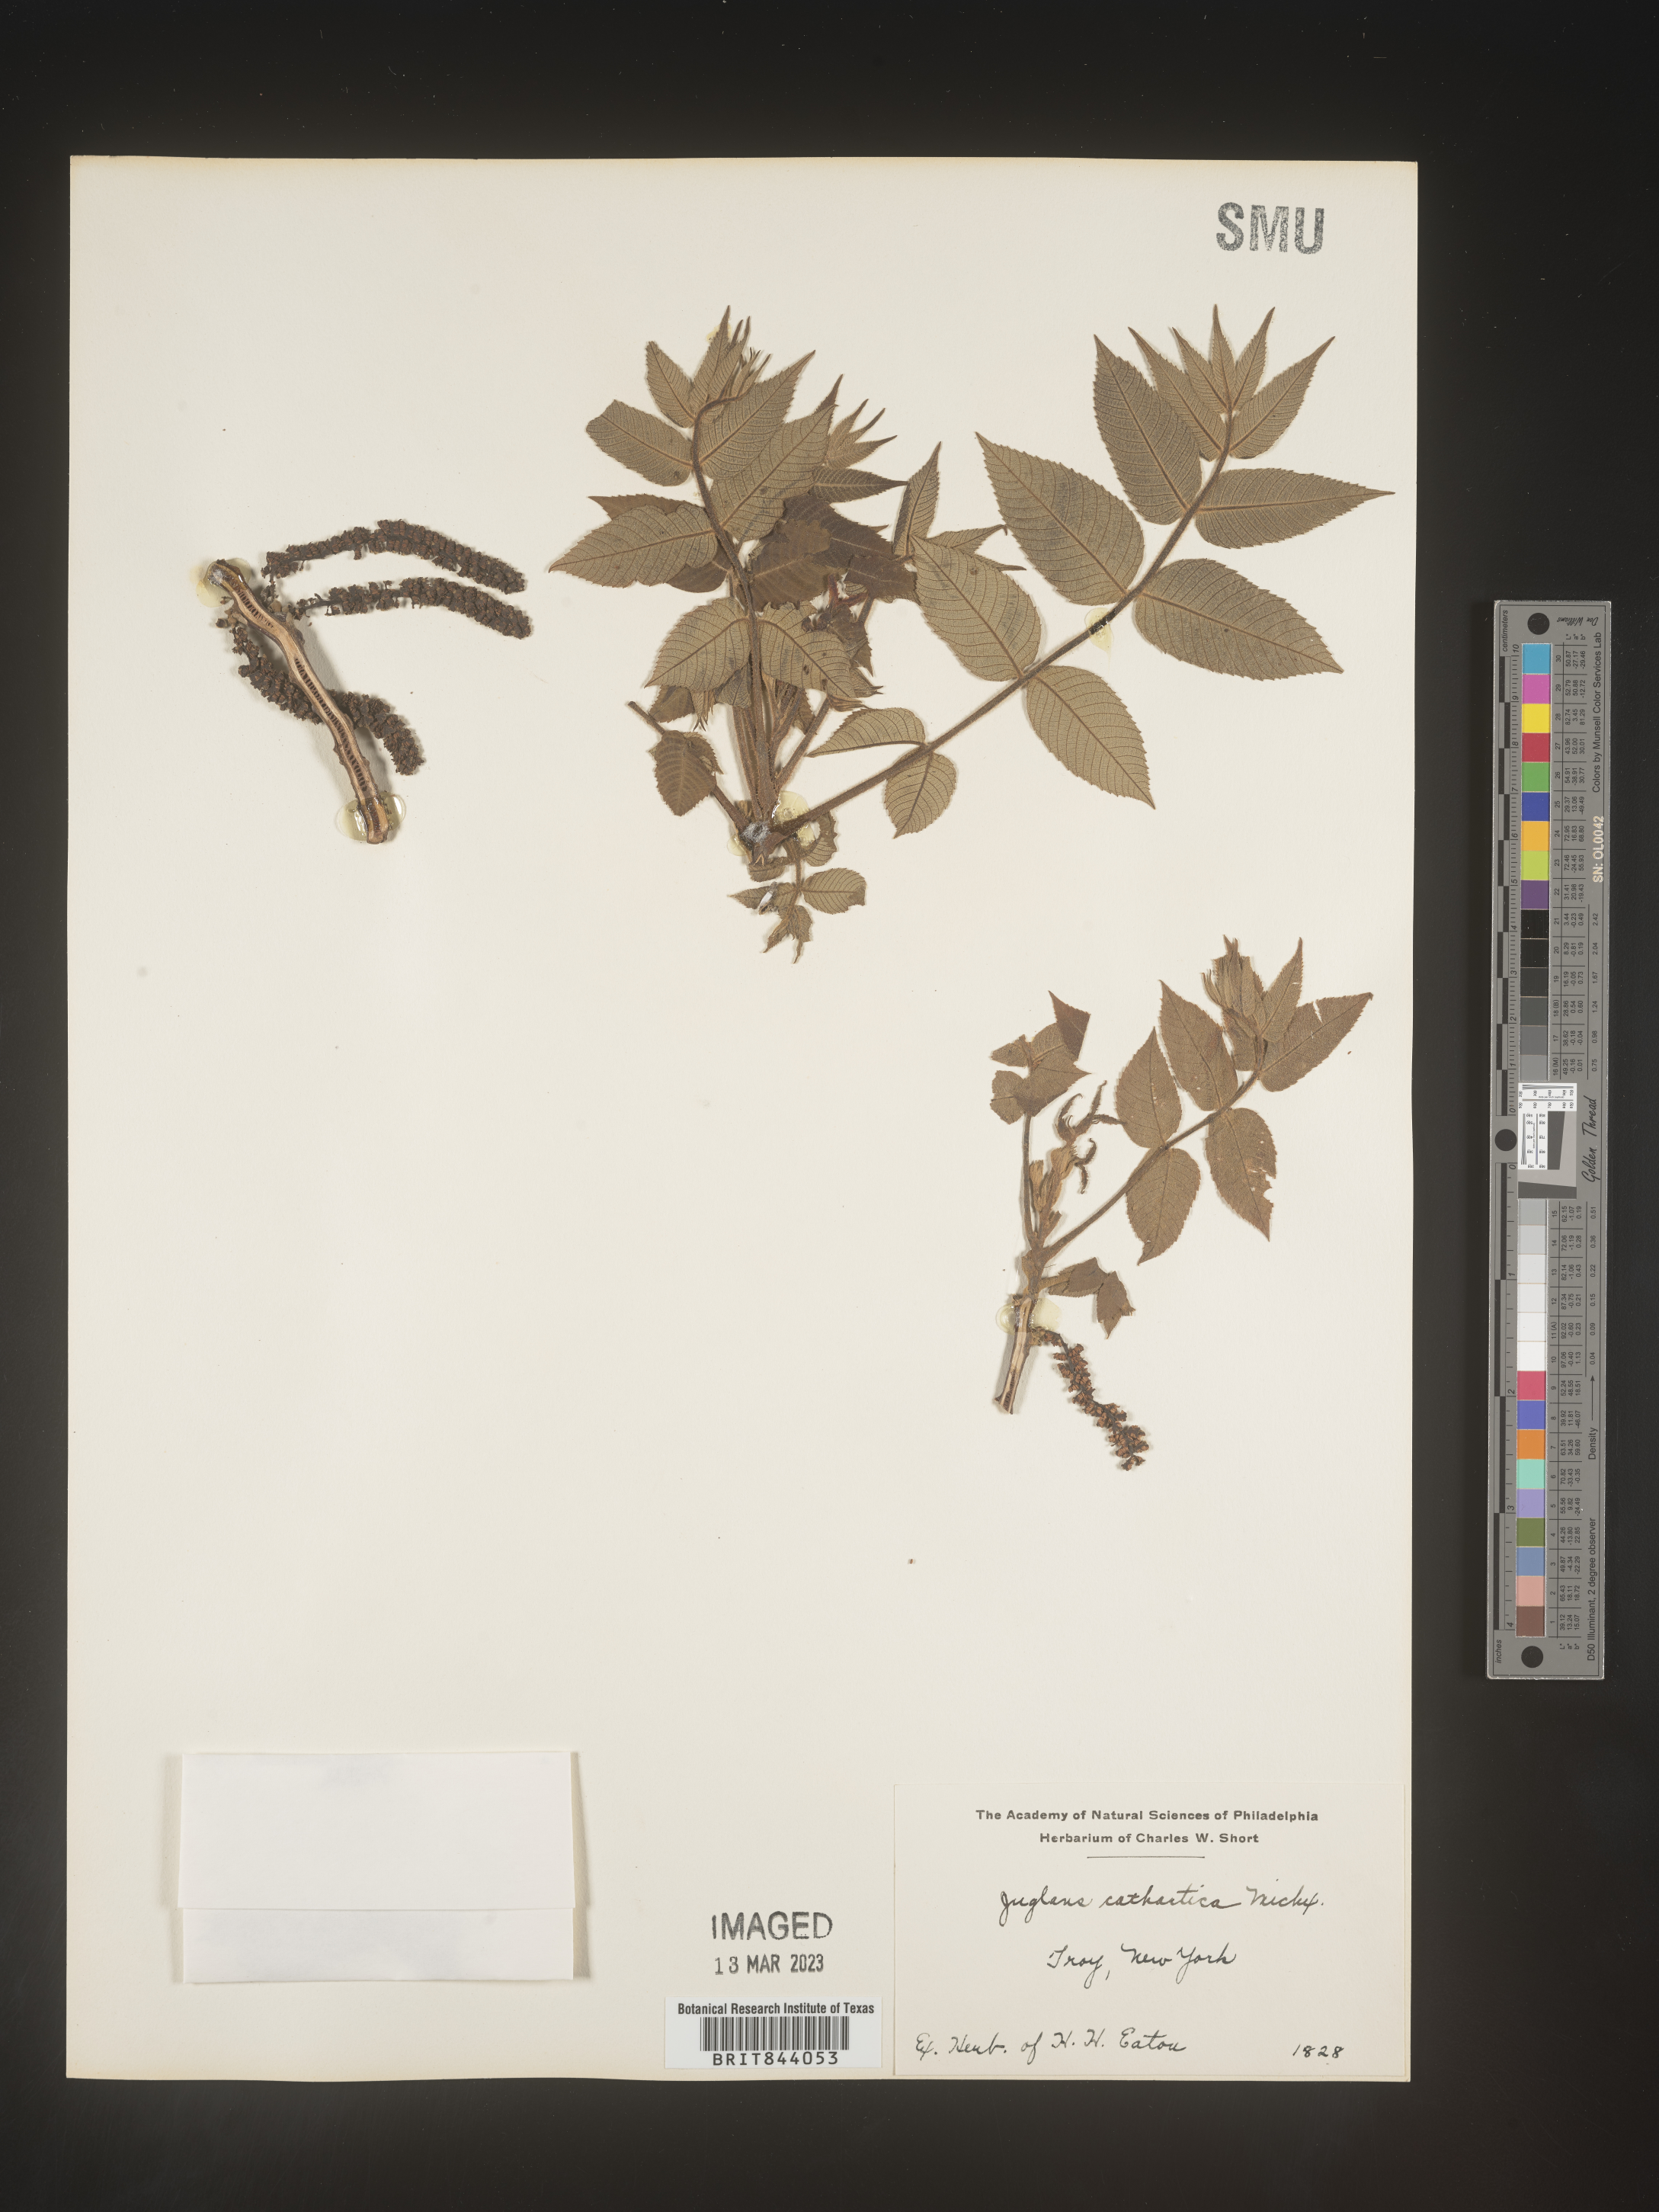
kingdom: Plantae
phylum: Tracheophyta
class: Magnoliopsida
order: Fagales
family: Juglandaceae
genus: Juglans
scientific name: Juglans cinerea
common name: Butternut
